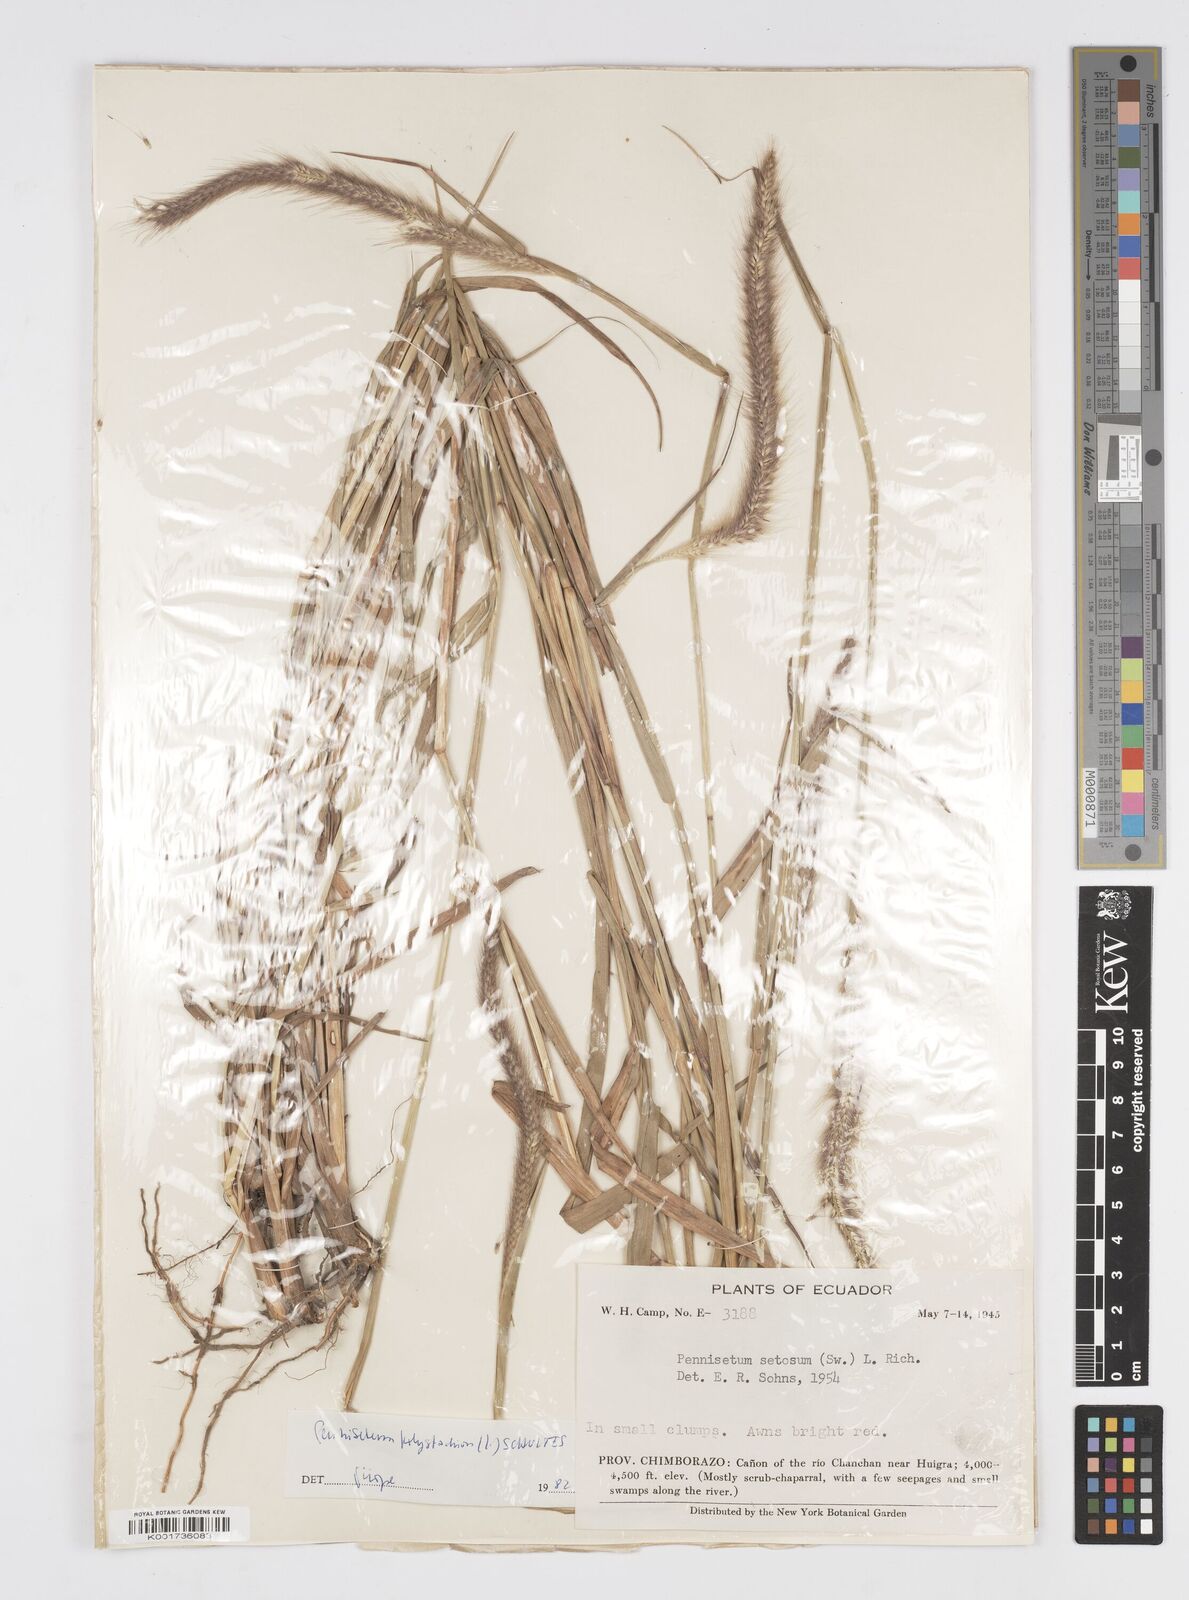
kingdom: Plantae
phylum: Tracheophyta
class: Liliopsida
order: Poales
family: Poaceae
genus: Setaria
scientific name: Setaria parviflora
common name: Knotroot bristle-grass
